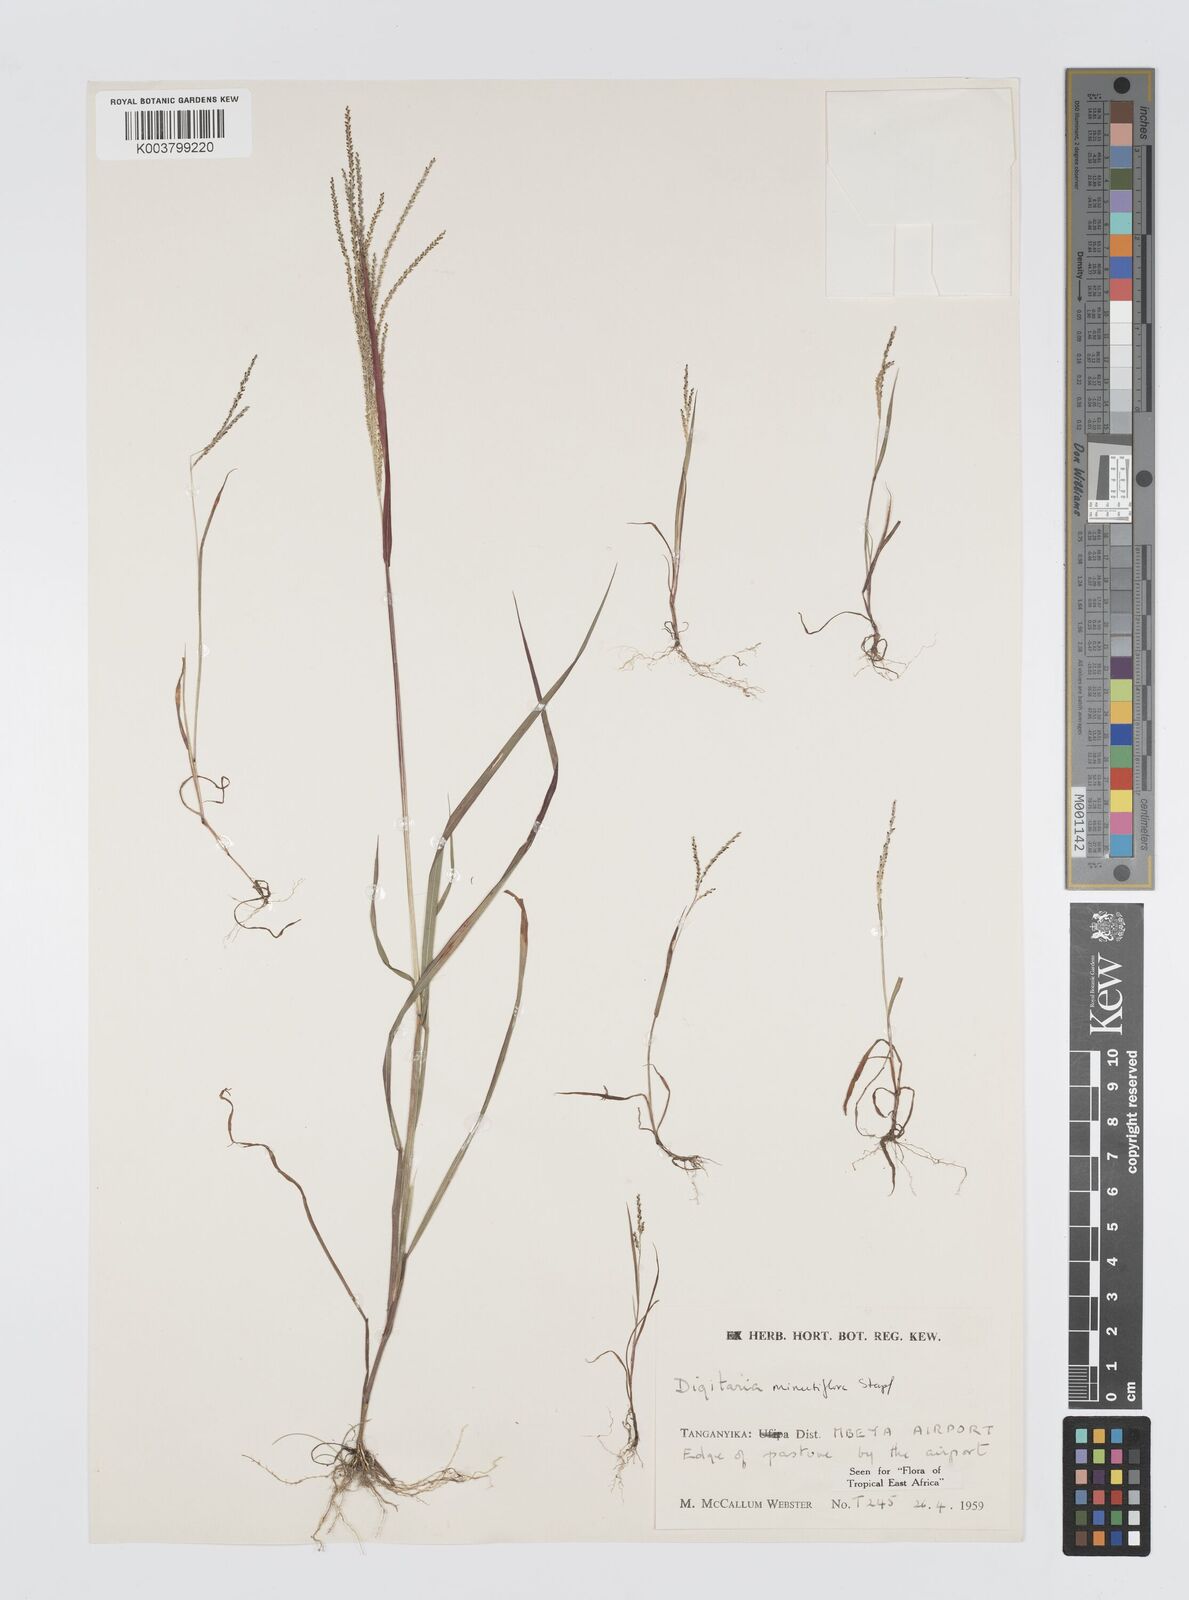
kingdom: Plantae
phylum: Tracheophyta
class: Liliopsida
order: Poales
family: Poaceae
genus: Digitaria
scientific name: Digitaria pseudodiagonalis
